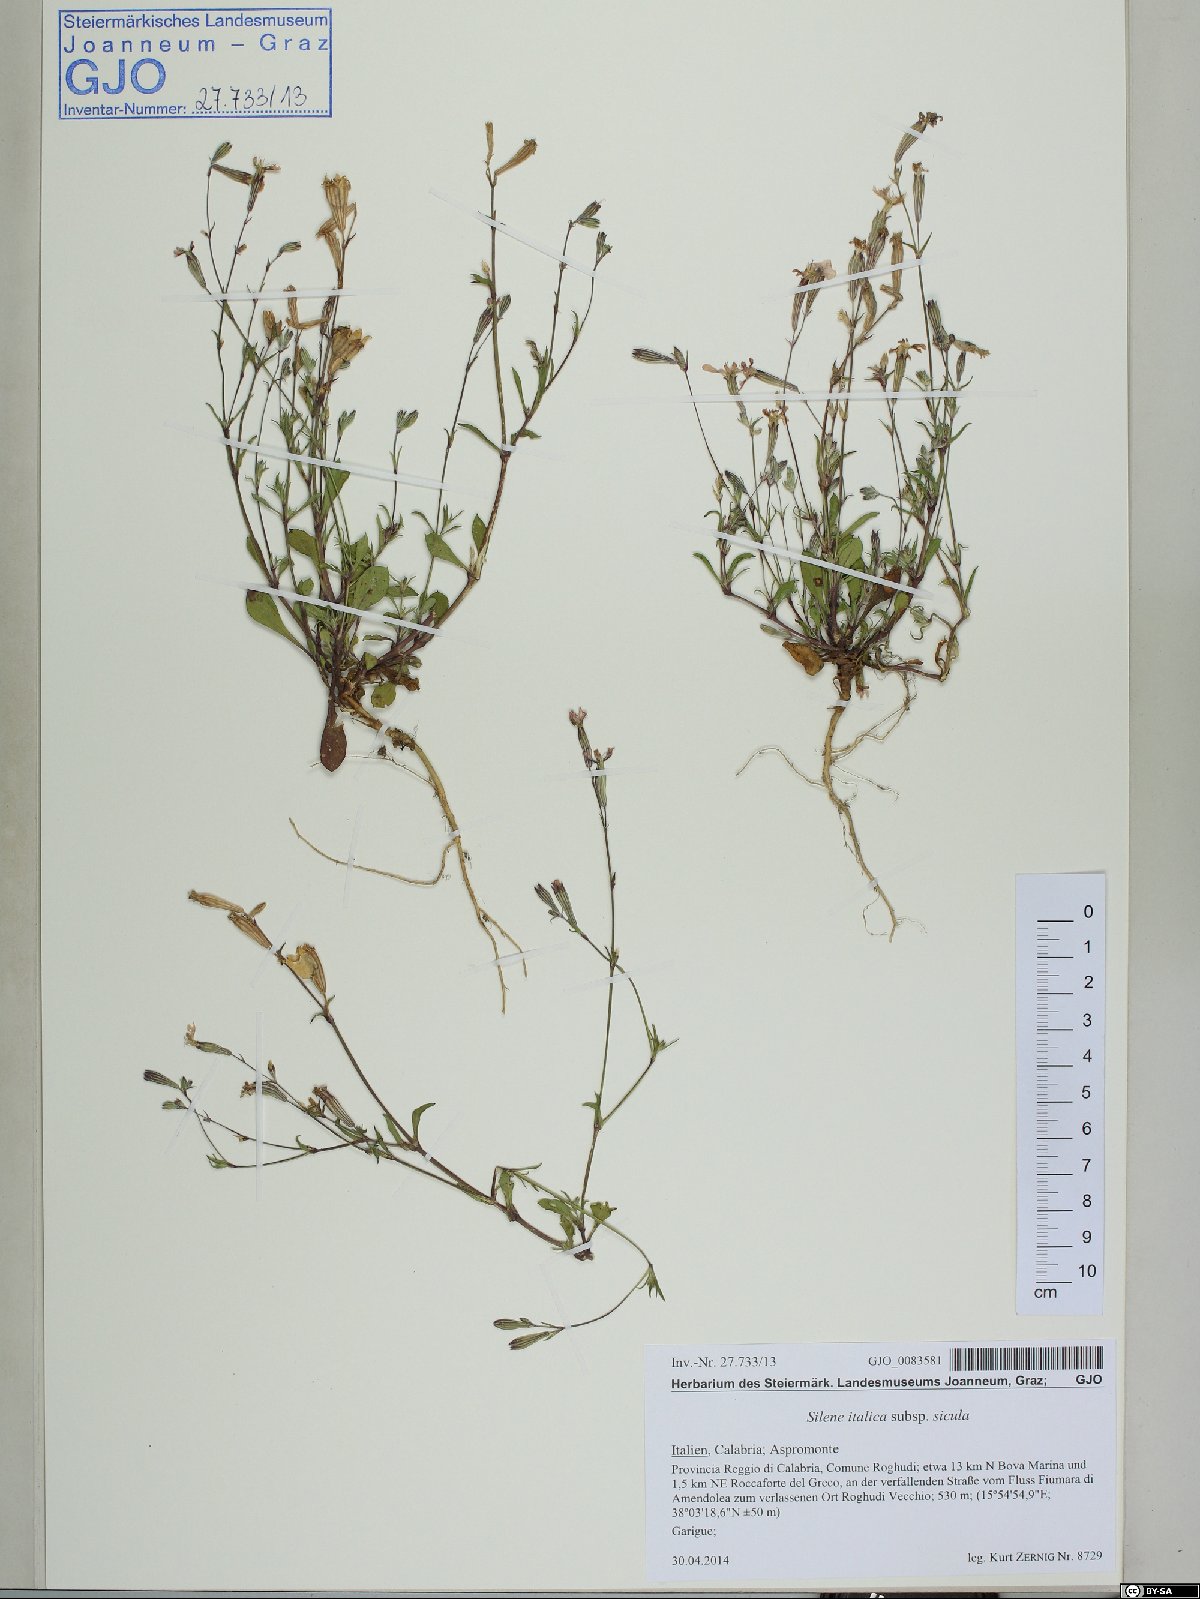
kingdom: Plantae
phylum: Tracheophyta
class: Magnoliopsida
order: Caryophyllales
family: Caryophyllaceae
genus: Silene
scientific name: Silene italica
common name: Italian catchfly
